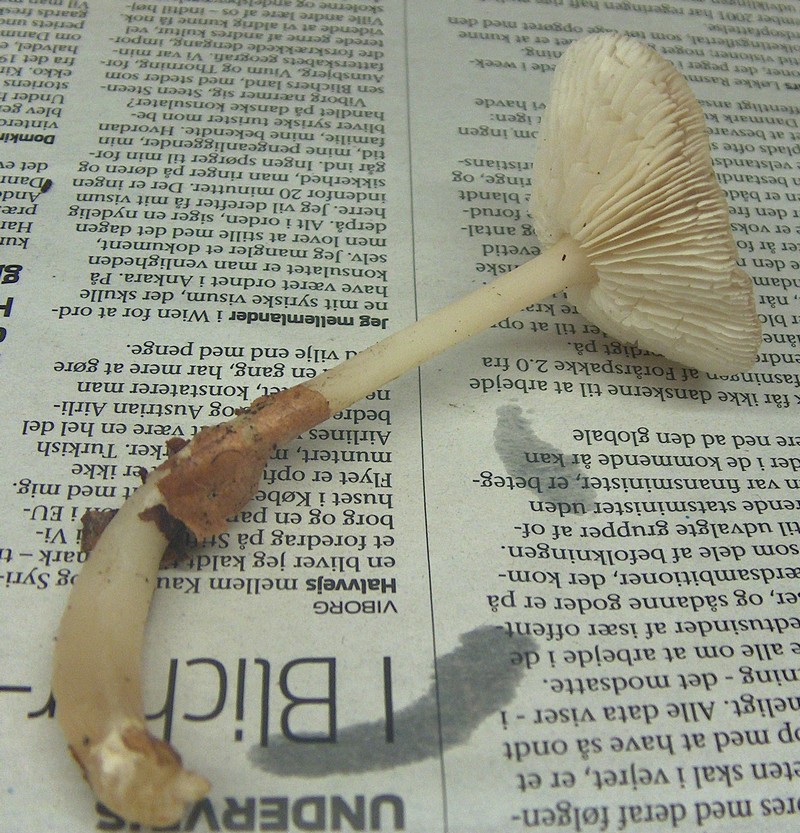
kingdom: Fungi
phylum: Basidiomycota
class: Agaricomycetes
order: Agaricales
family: Omphalotaceae
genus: Rhodocollybia
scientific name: Rhodocollybia asema
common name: horngrå fladhat
